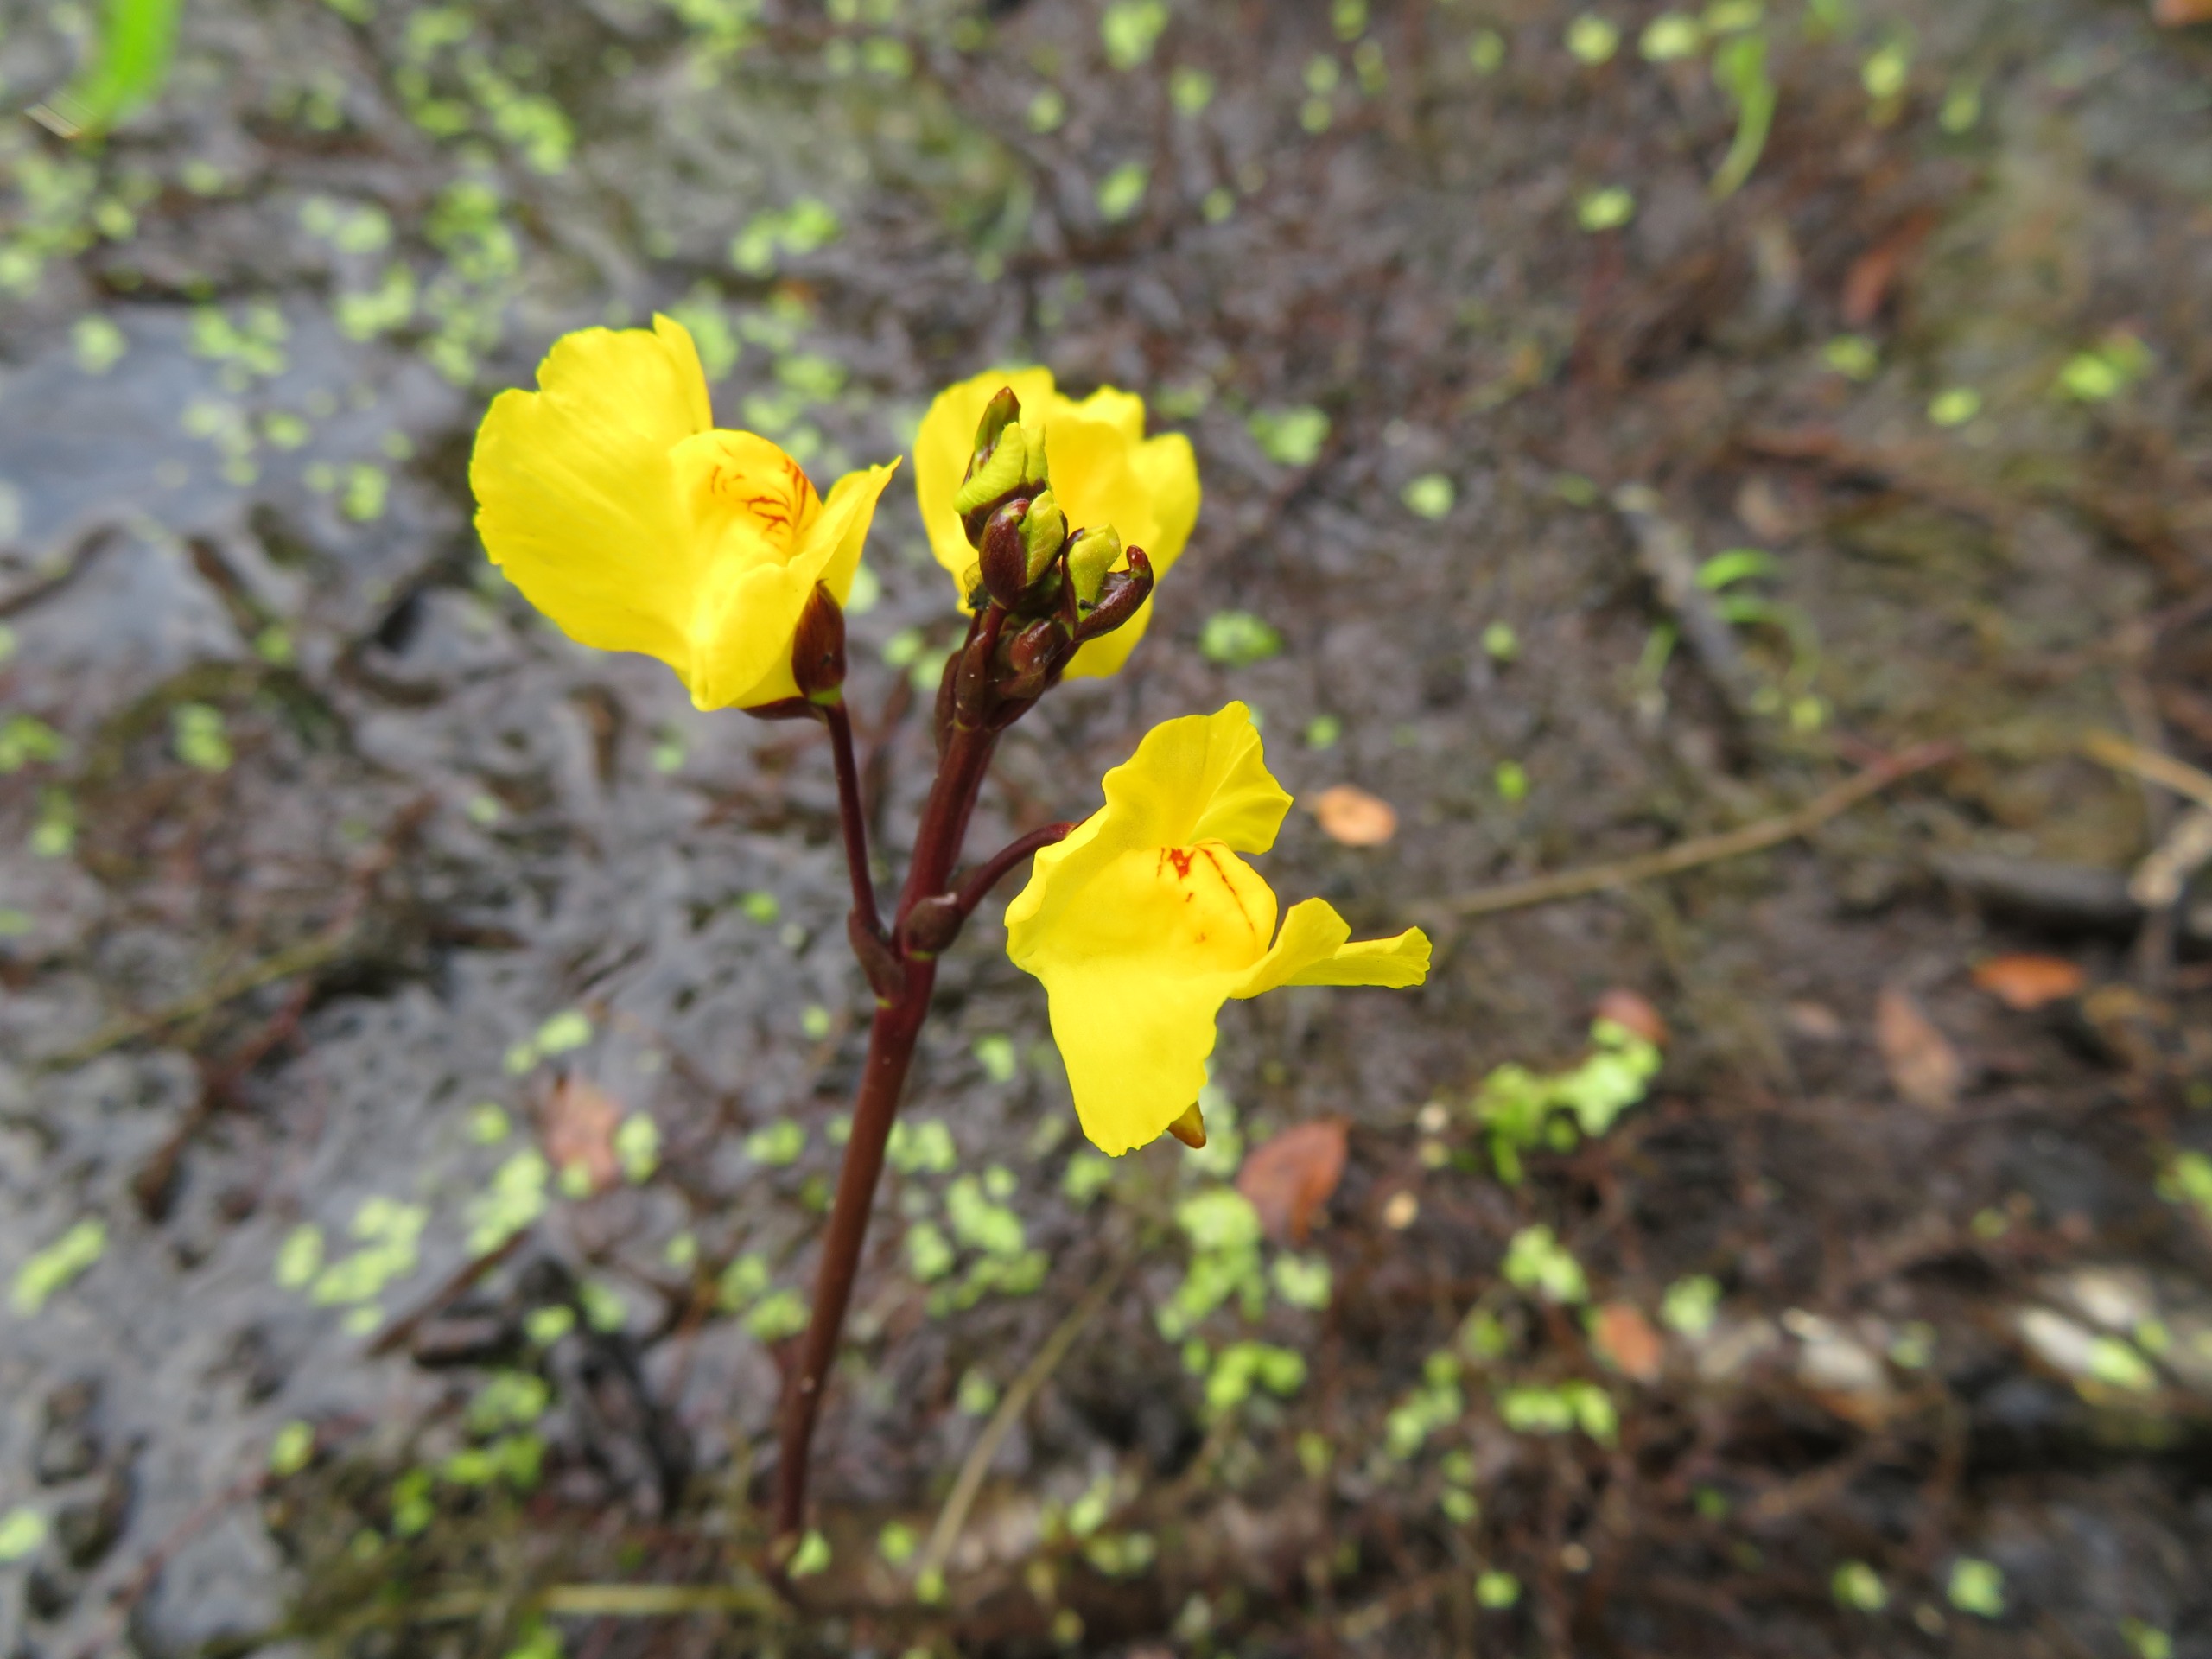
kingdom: Plantae
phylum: Tracheophyta
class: Magnoliopsida
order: Lamiales
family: Lentibulariaceae
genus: Utricularia
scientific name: Utricularia australis
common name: Slank blærerod
